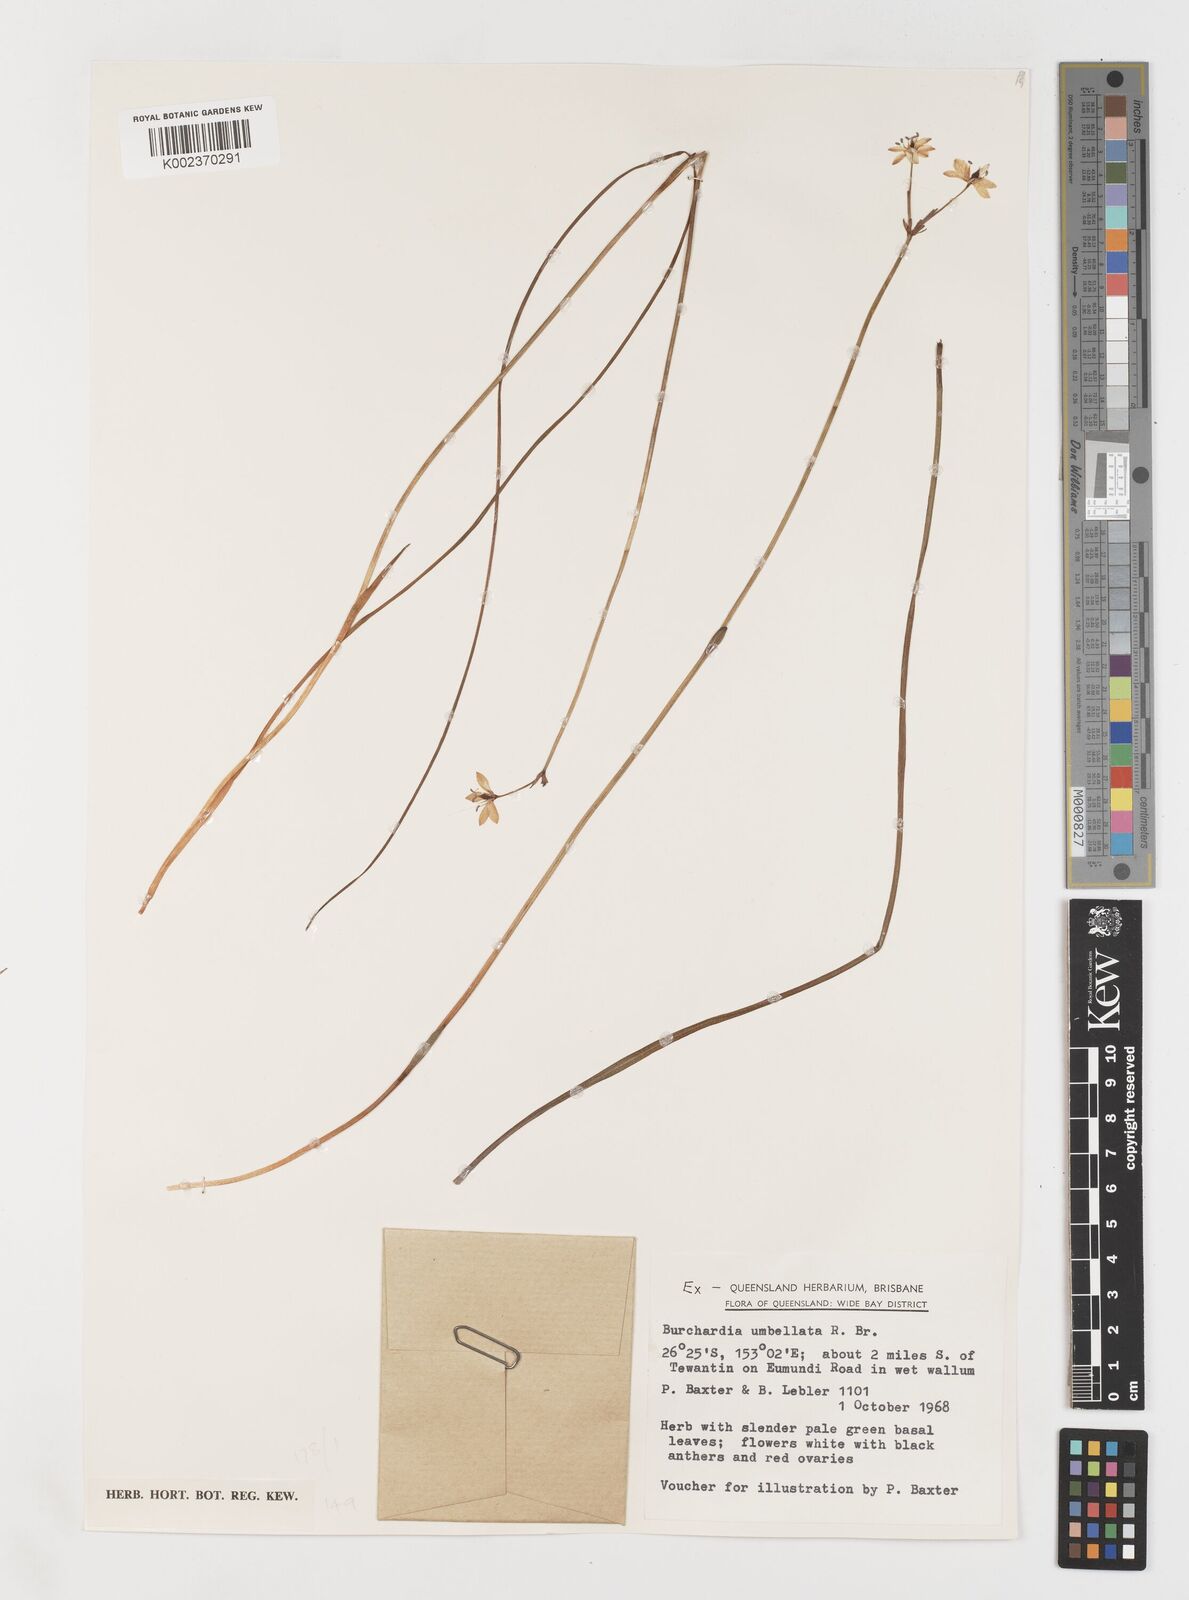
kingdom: Plantae
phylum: Tracheophyta
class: Liliopsida
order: Liliales
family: Colchicaceae
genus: Burchardia
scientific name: Burchardia umbellata
